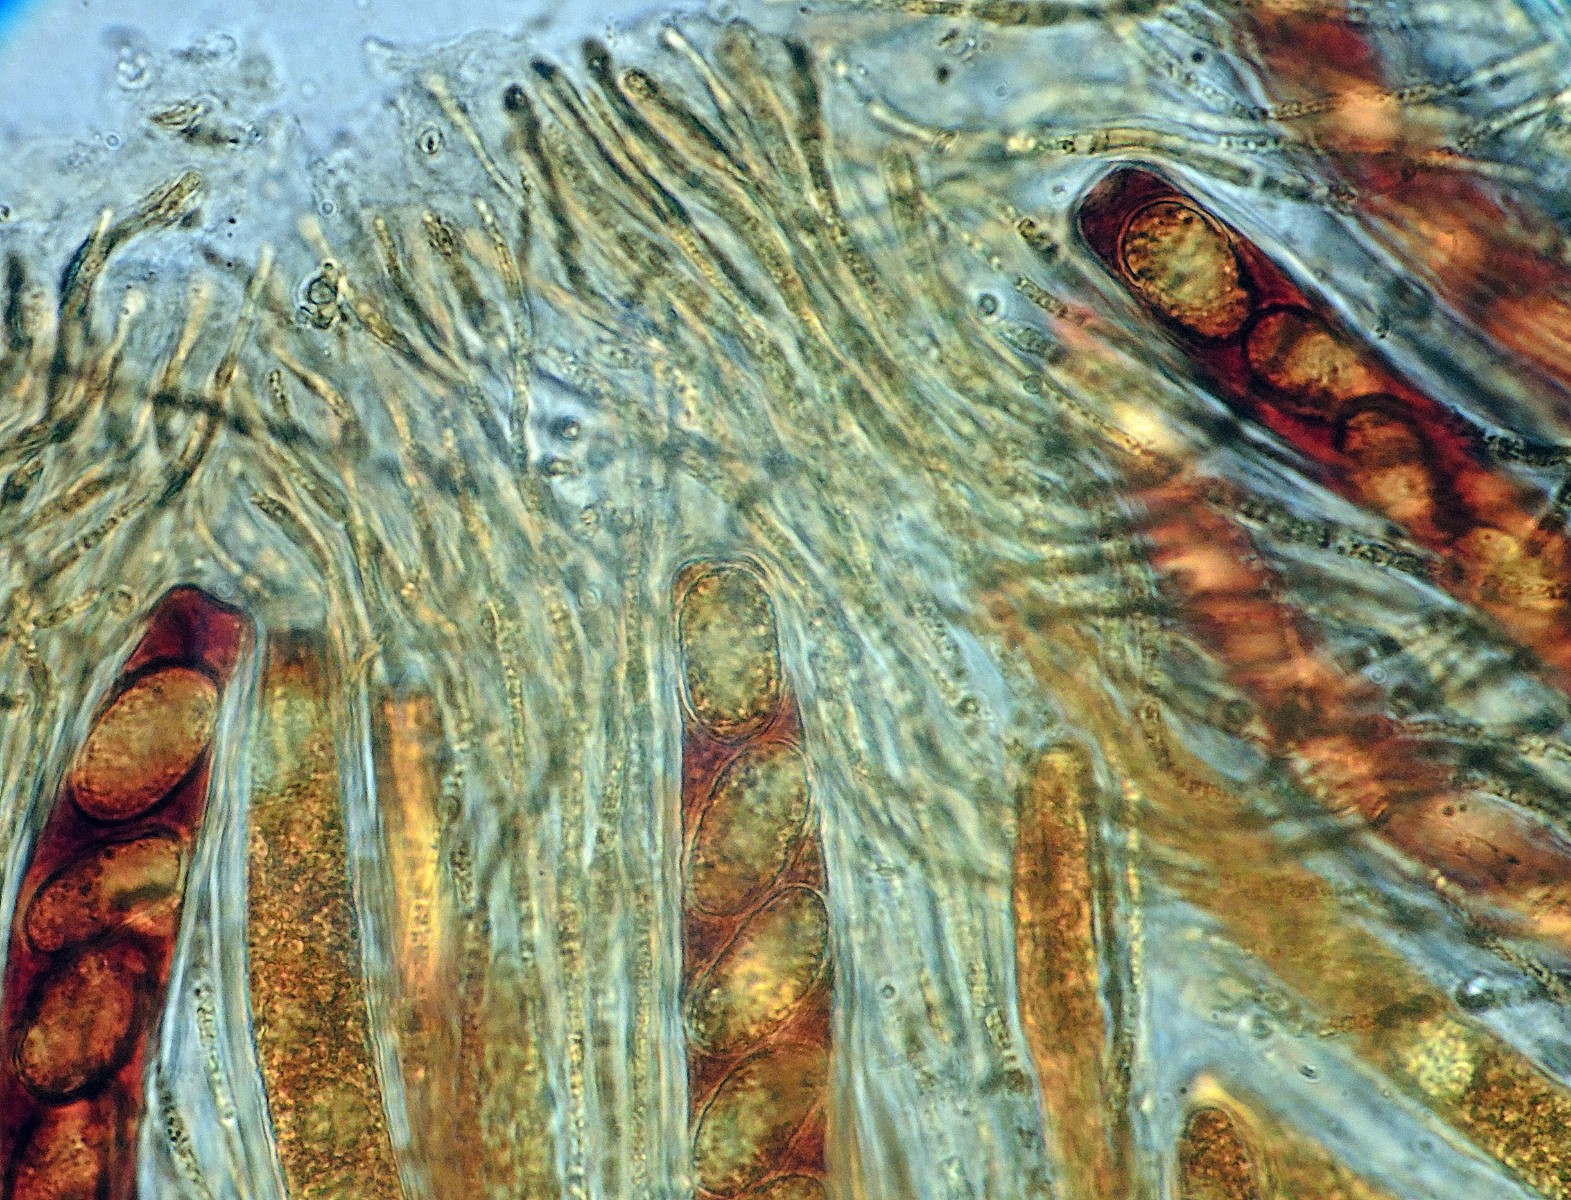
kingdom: Fungi
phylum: Ascomycota
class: Leotiomycetes
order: Helotiales
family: Gelatinodiscaceae
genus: Phaeangellina
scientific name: Phaeangellina empetri
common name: revlingskive
